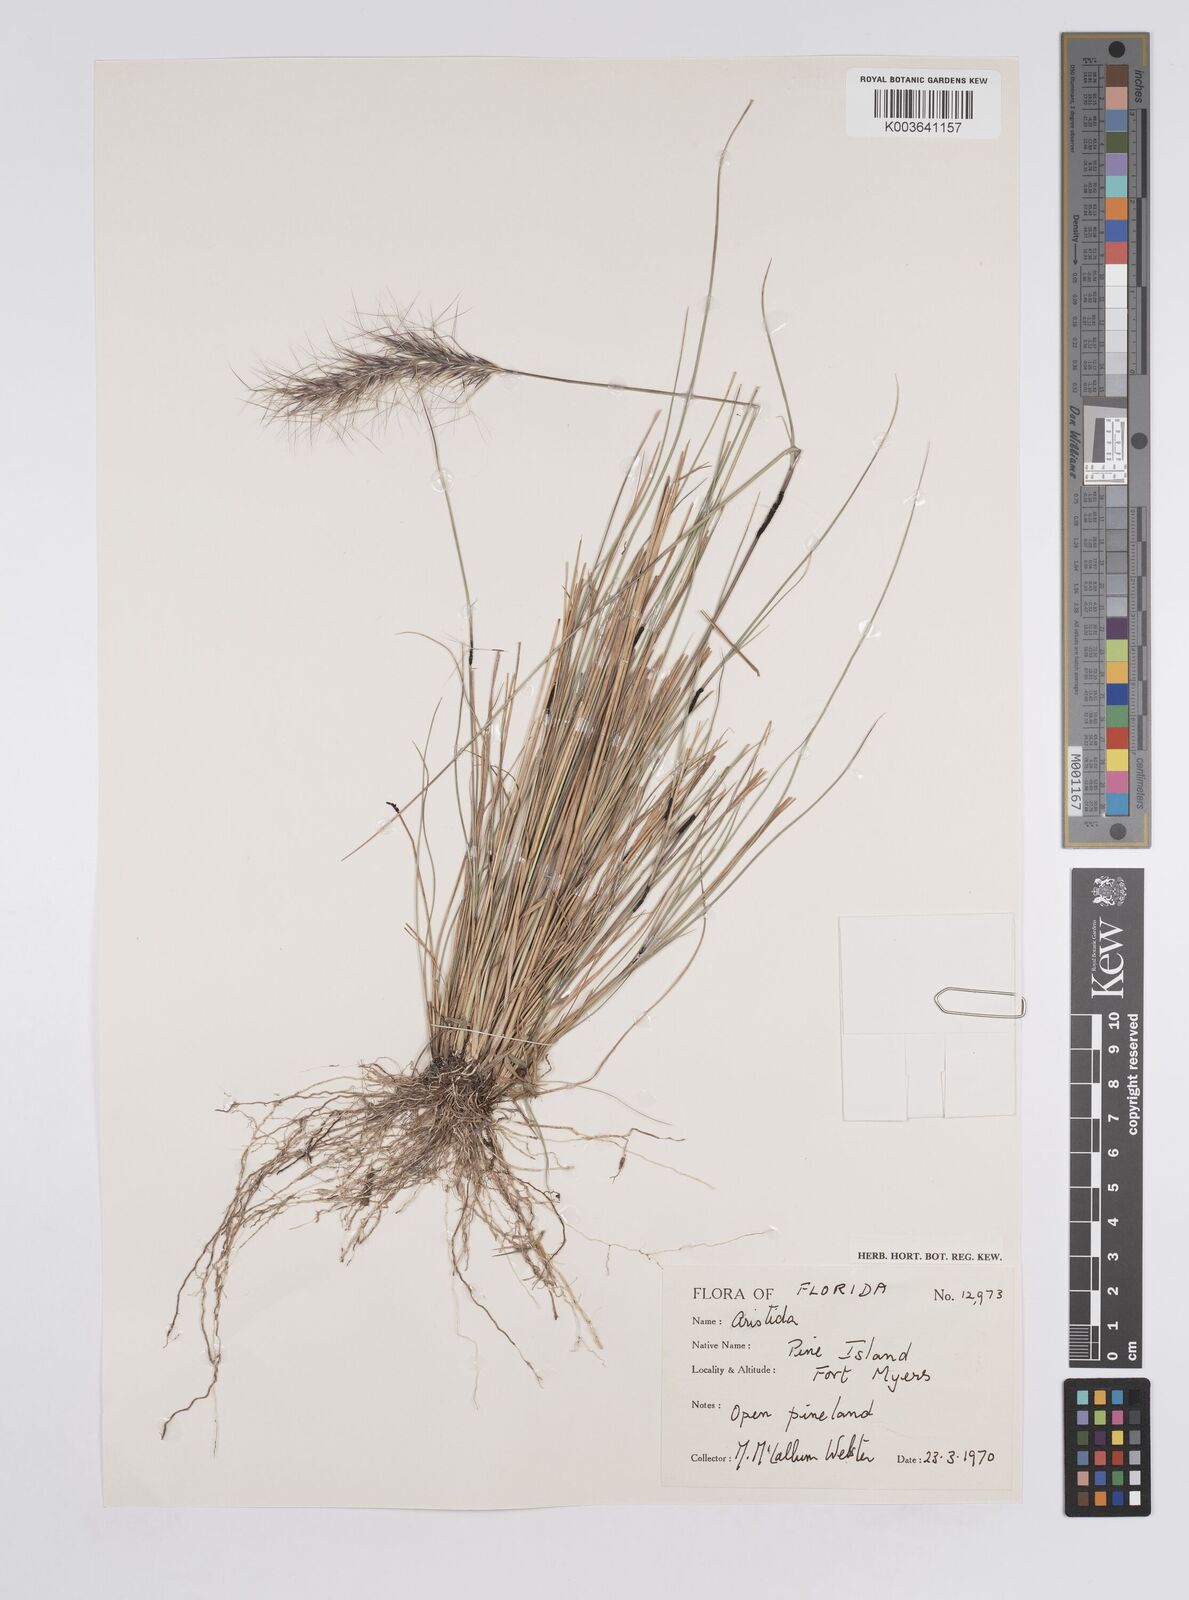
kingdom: Plantae
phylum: Tracheophyta
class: Liliopsida
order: Poales
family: Poaceae
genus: Aristida
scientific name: Aristida
